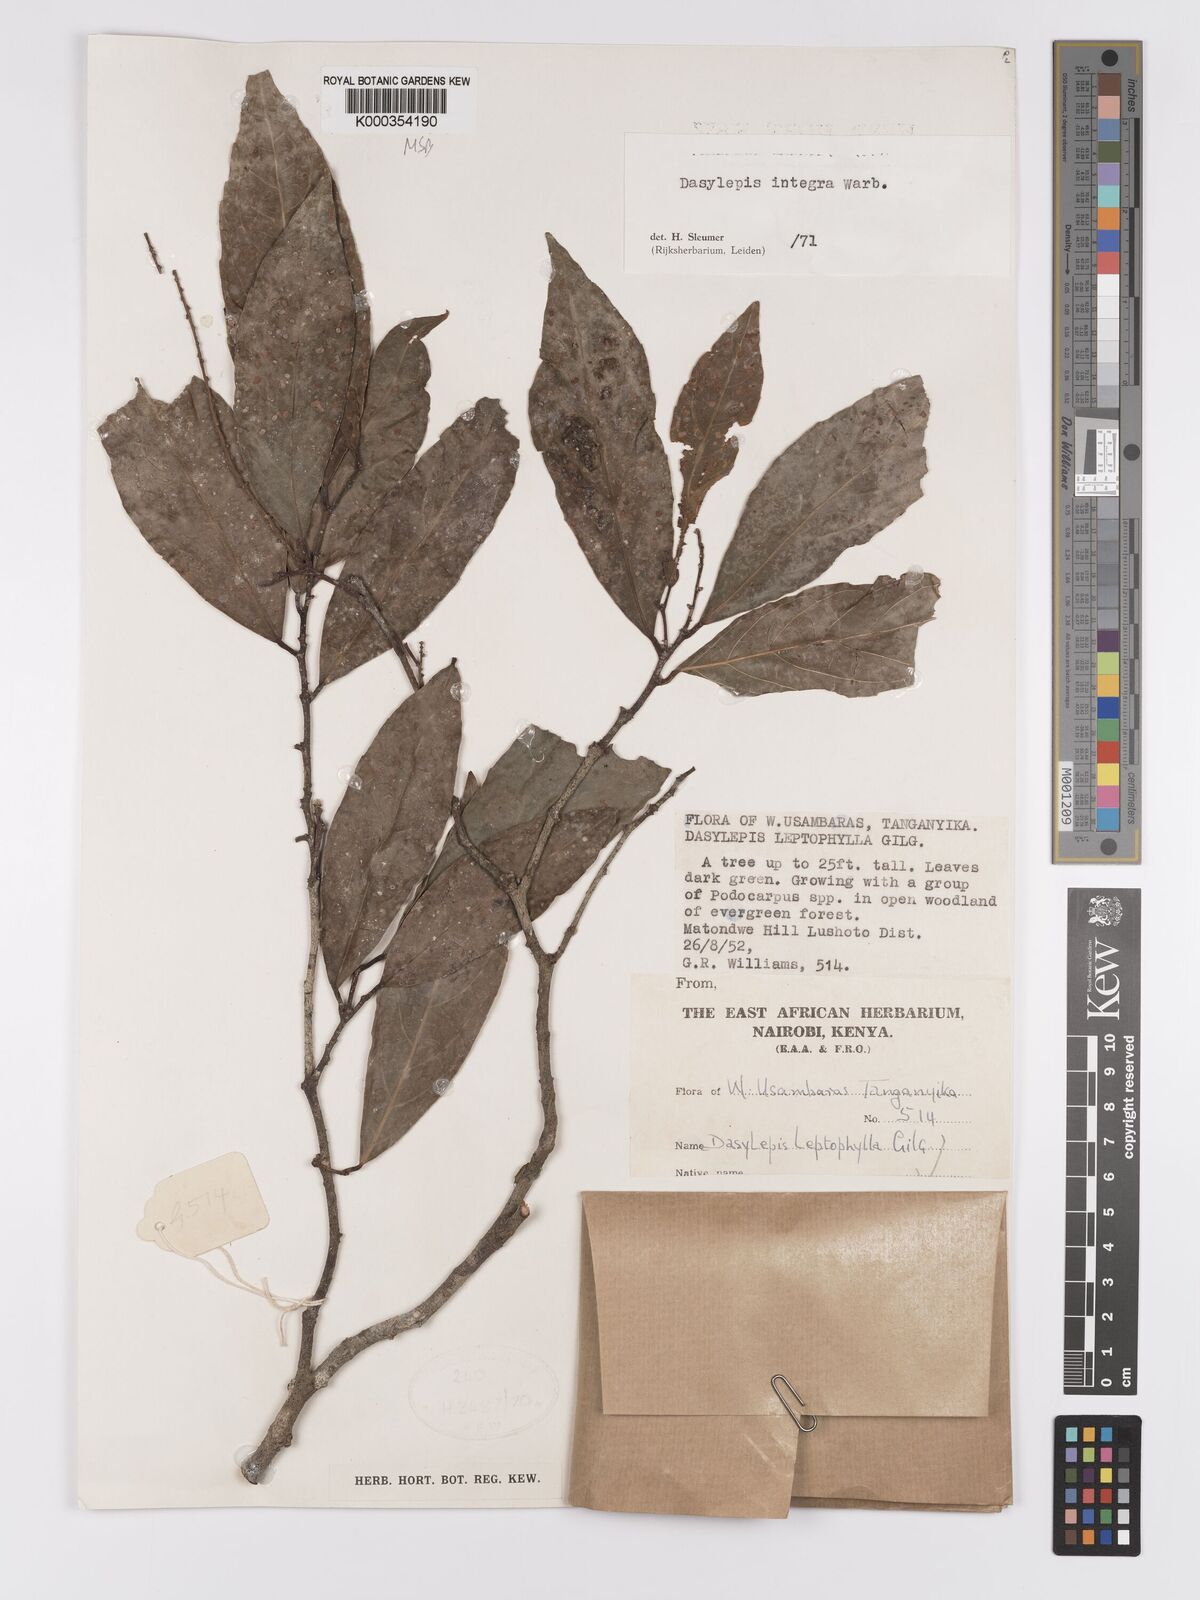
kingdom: Plantae
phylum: Tracheophyta
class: Magnoliopsida
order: Malpighiales
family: Achariaceae
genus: Dasylepis
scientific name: Dasylepis integra
